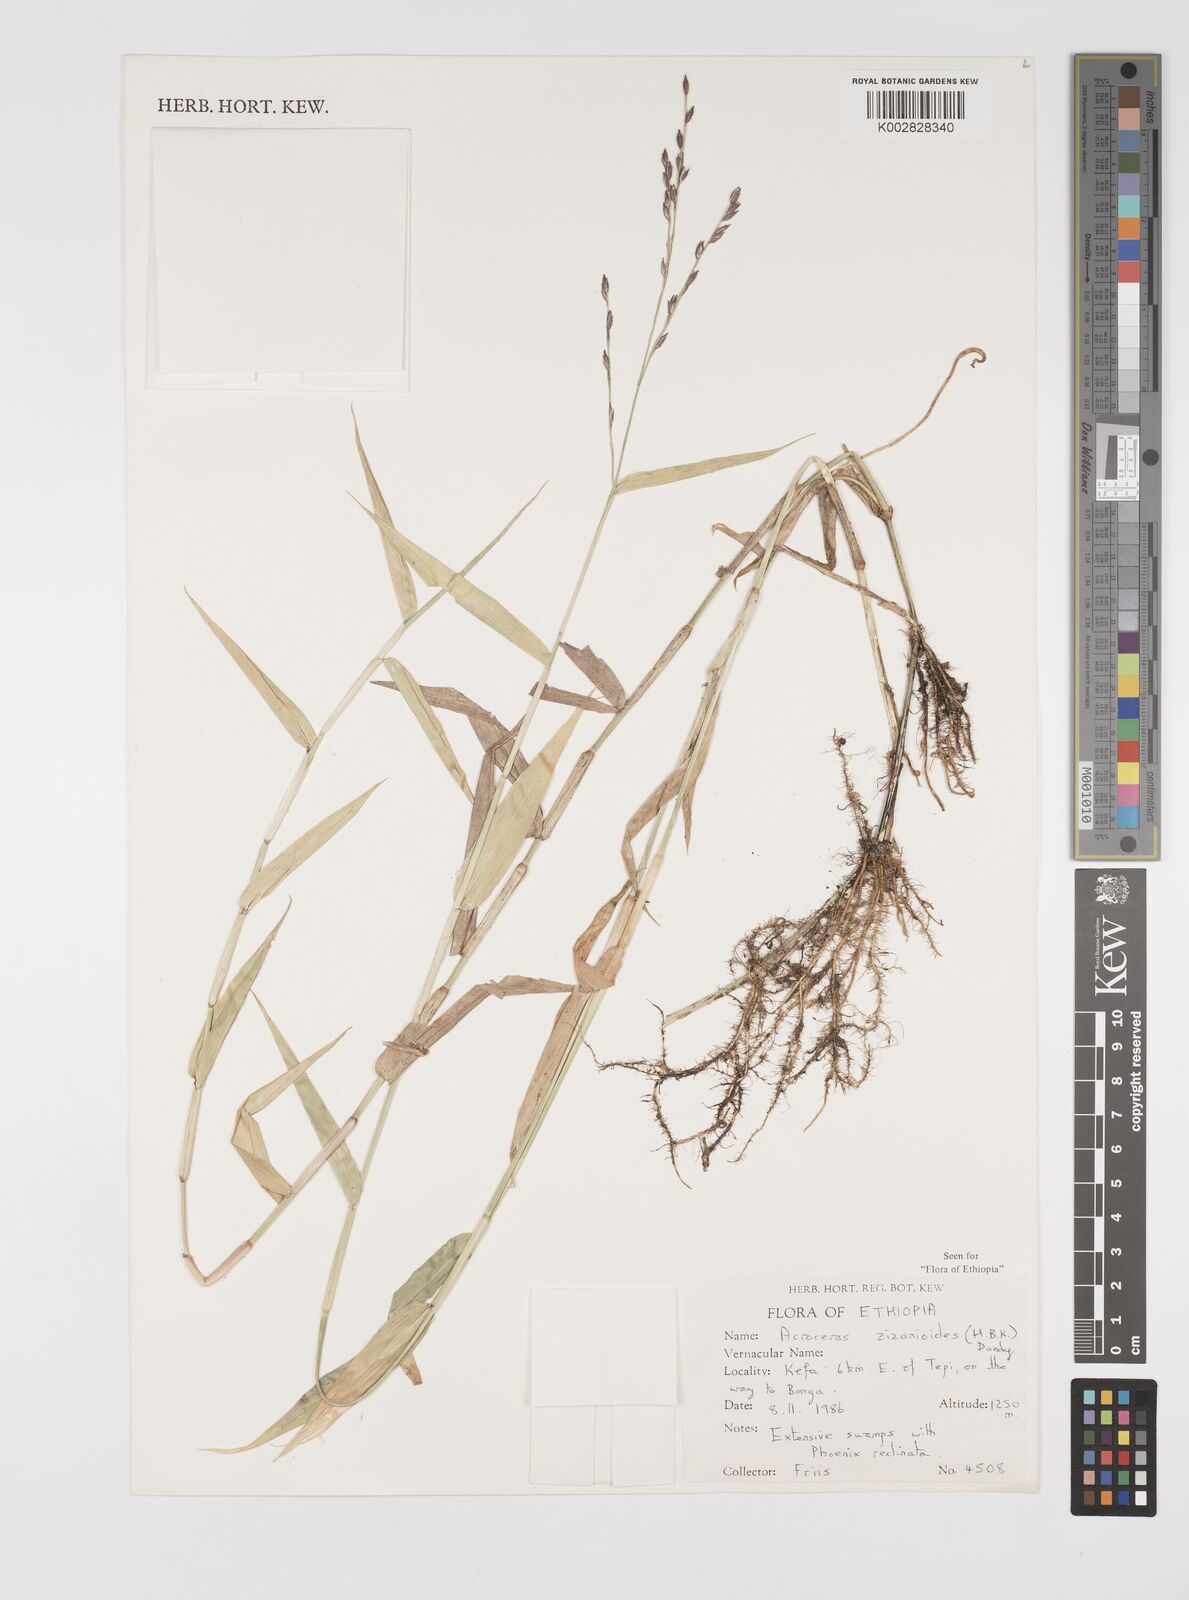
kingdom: Plantae
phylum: Tracheophyta
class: Liliopsida
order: Poales
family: Poaceae
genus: Acroceras
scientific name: Acroceras zizanioides
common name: Oat grass
